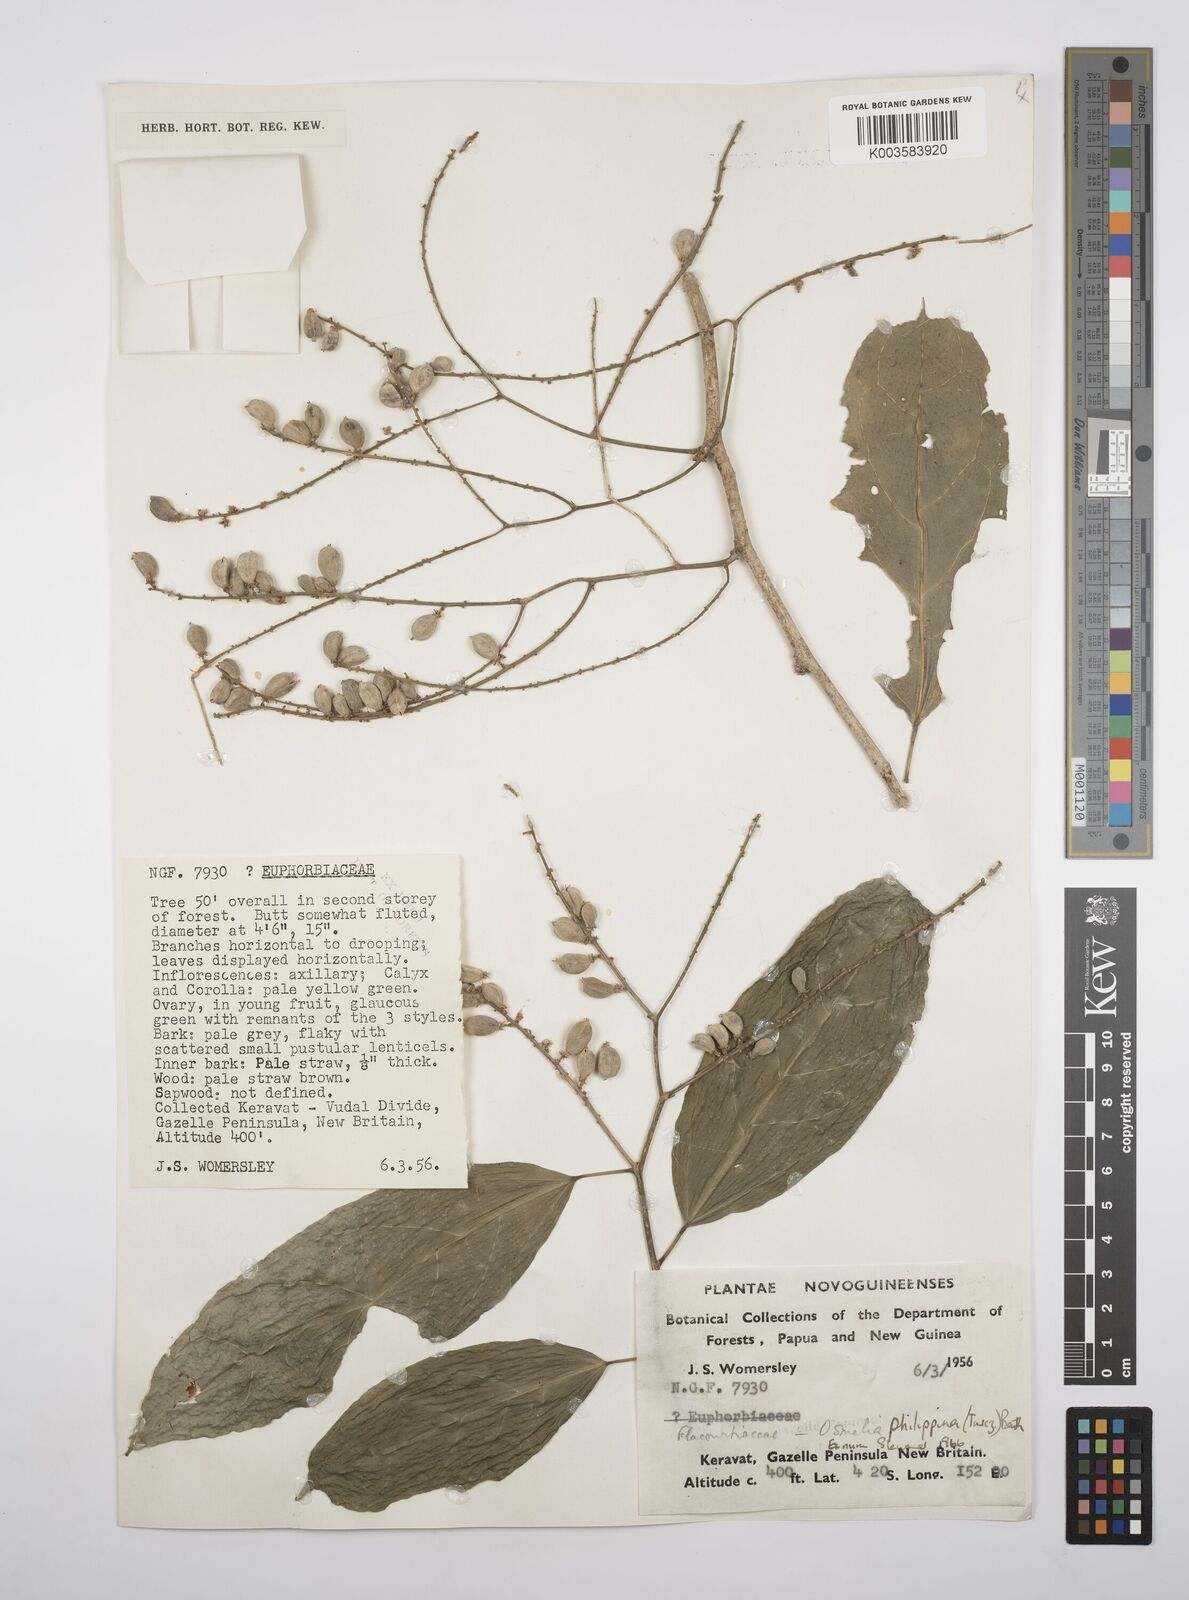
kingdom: Plantae
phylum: Tracheophyta
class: Magnoliopsida
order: Malpighiales
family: Salicaceae
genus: Osmelia
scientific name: Osmelia philippina
